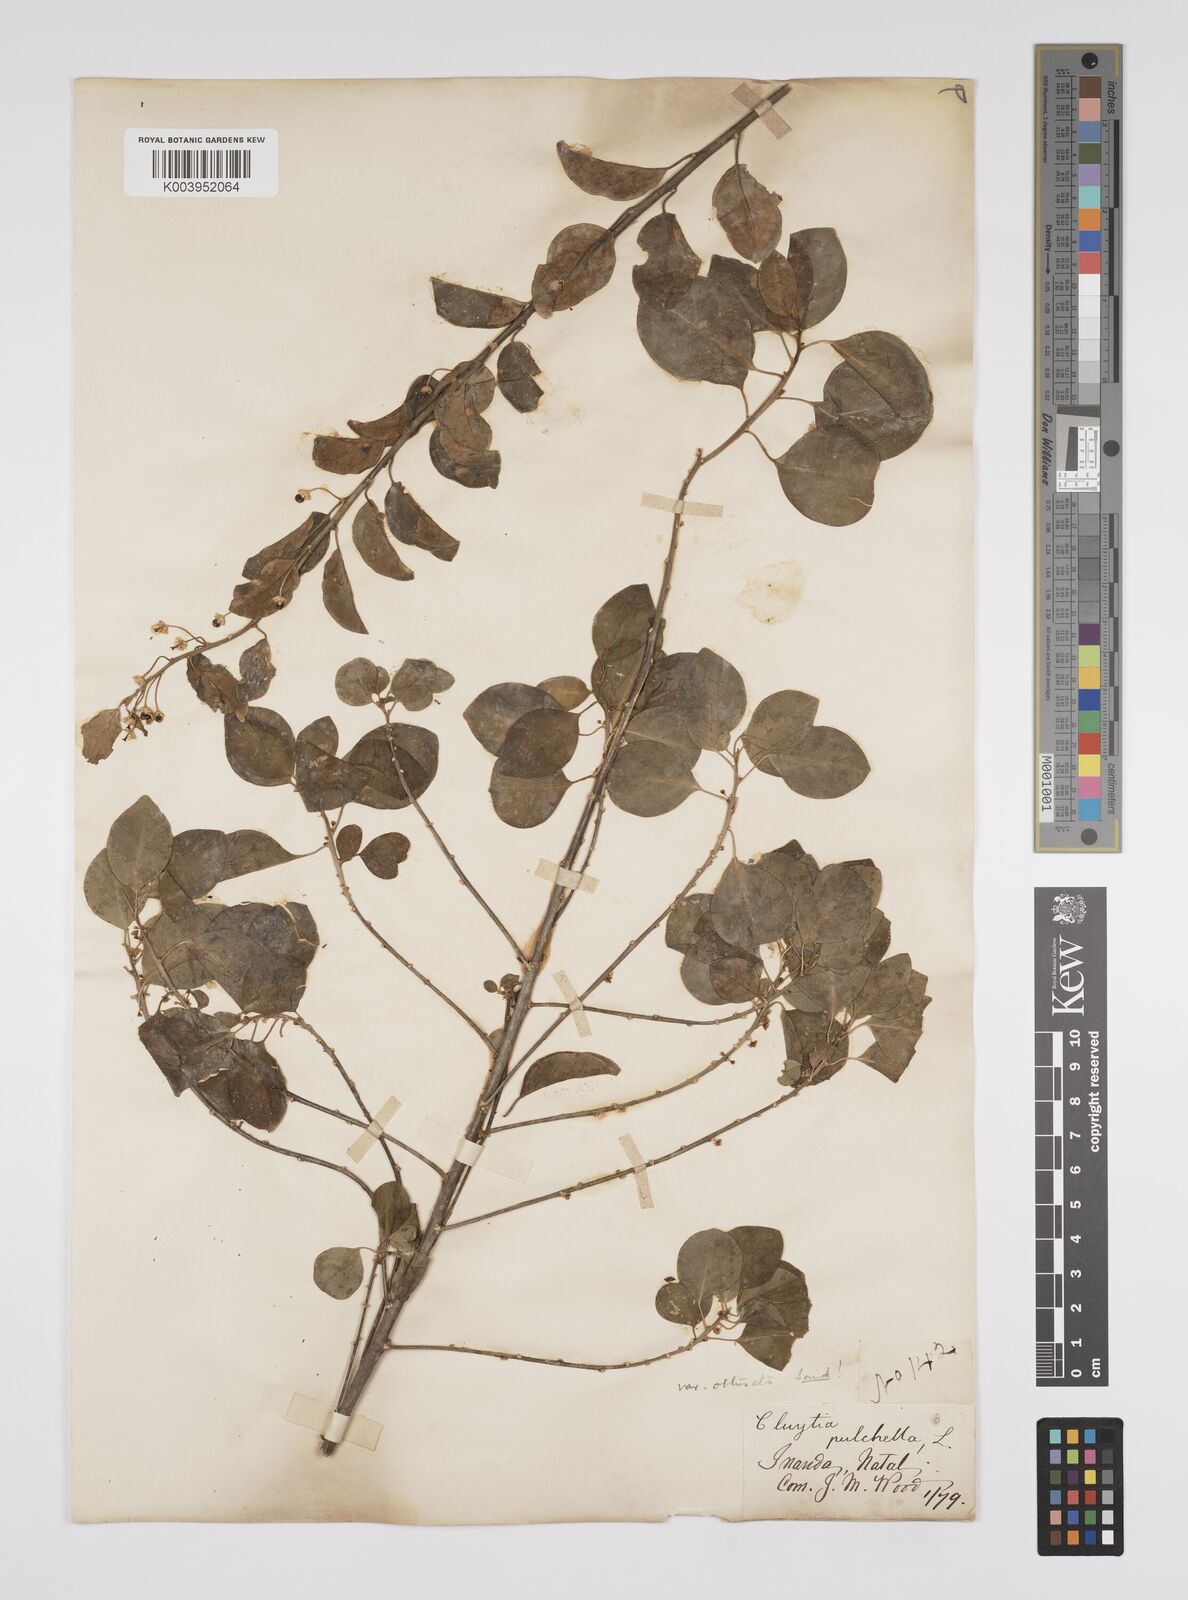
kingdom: Plantae
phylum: Tracheophyta
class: Magnoliopsida
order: Malpighiales
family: Peraceae
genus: Clutia
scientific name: Clutia pulchella
